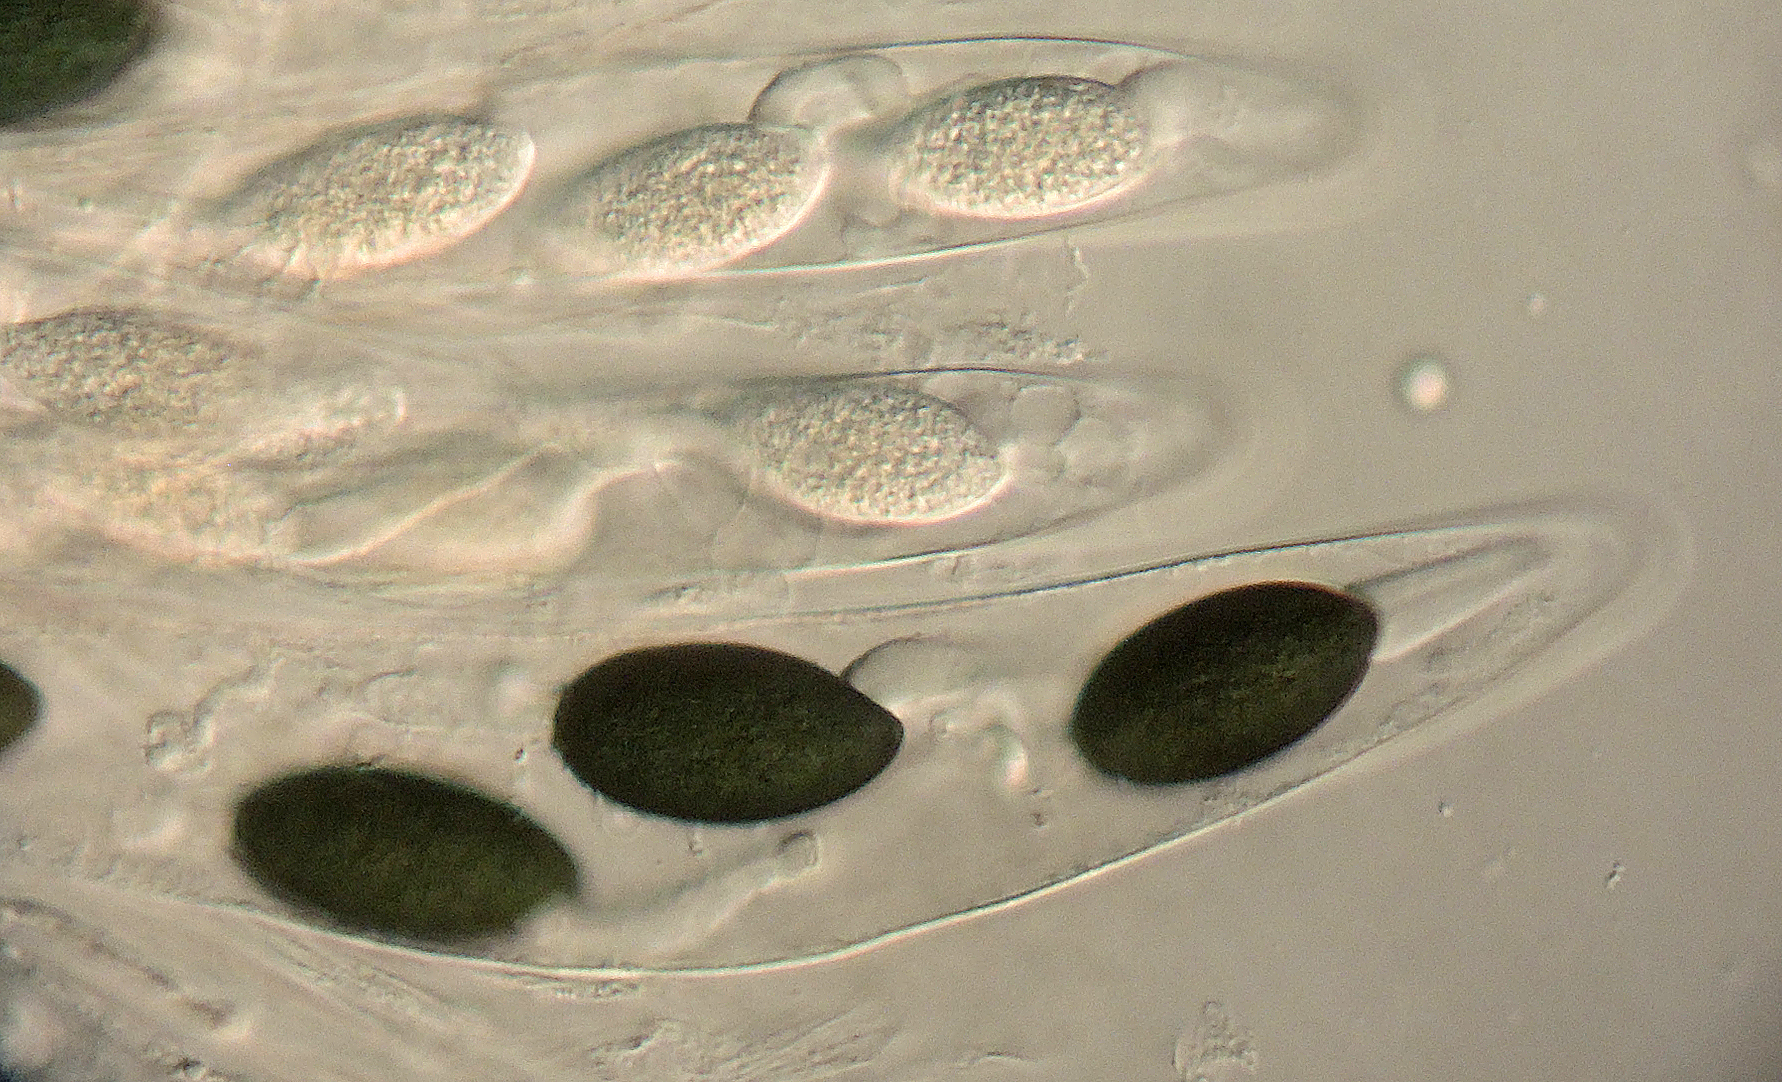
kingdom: Fungi
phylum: Ascomycota
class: Sordariomycetes
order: Sordariales
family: Podosporaceae
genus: Triangularia
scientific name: Triangularia pauciseta
